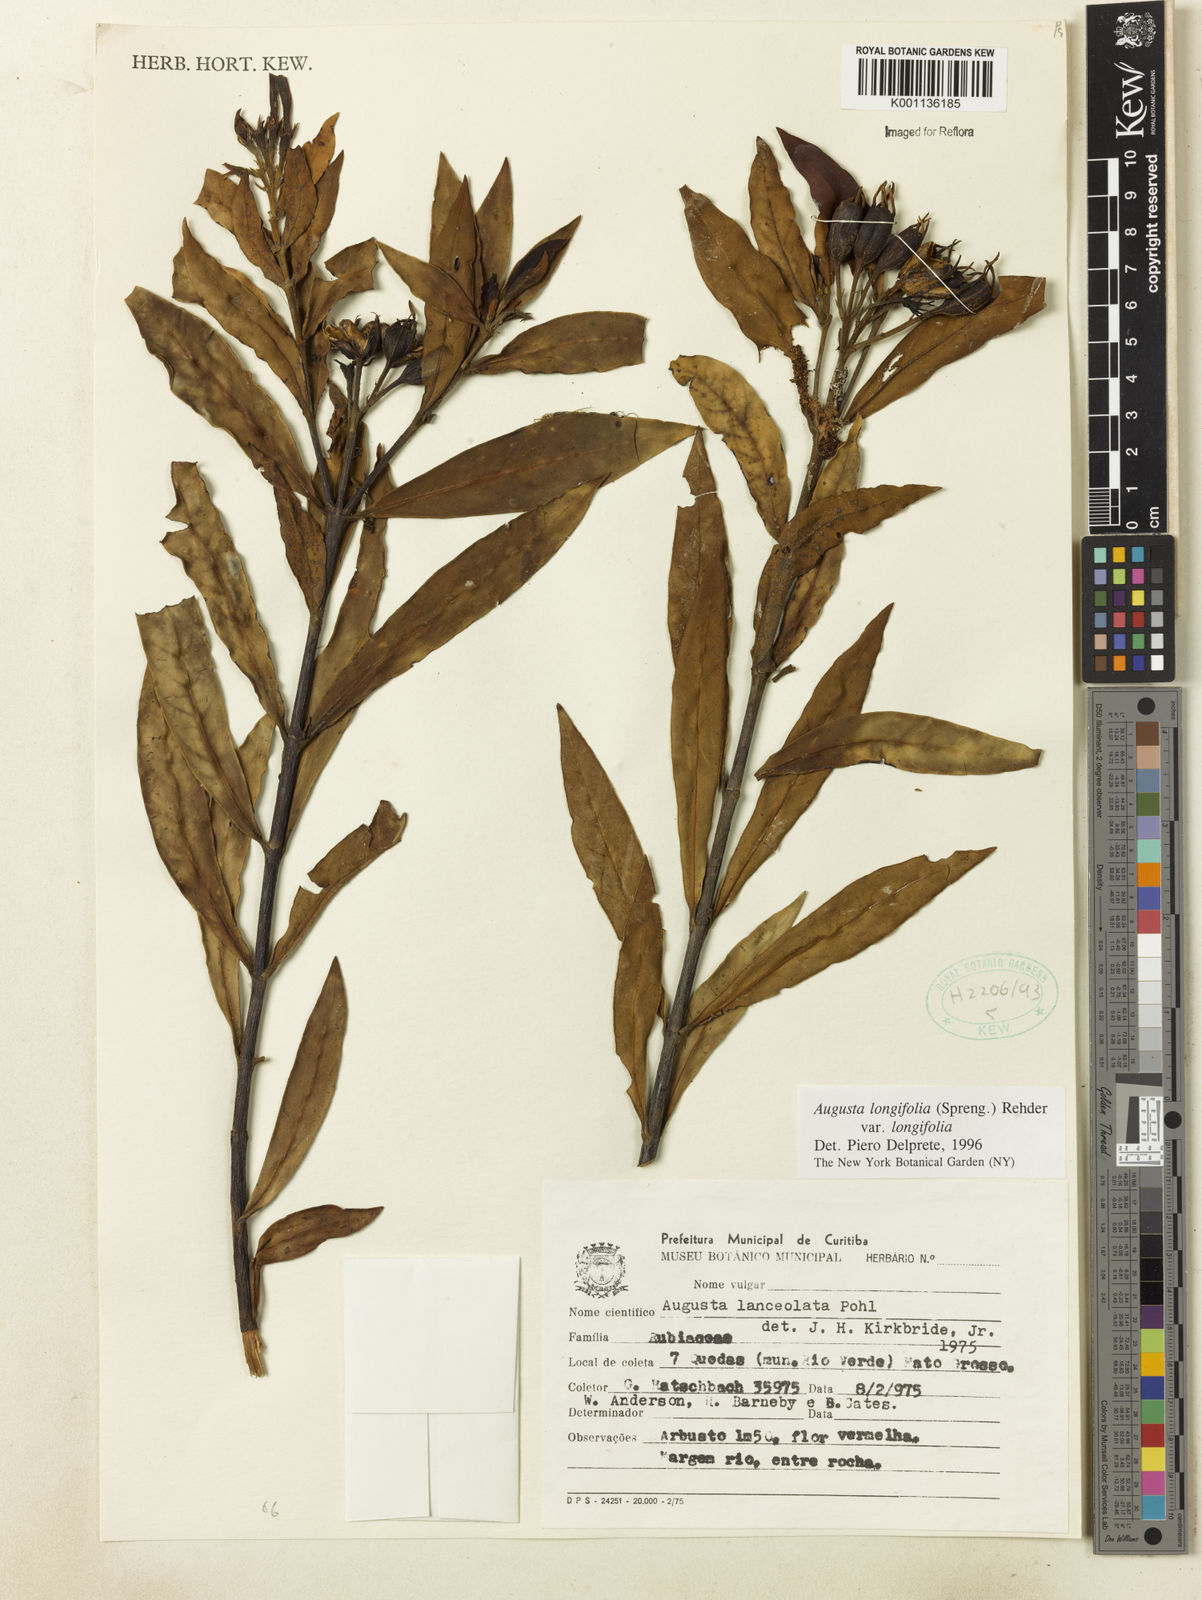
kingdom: Plantae
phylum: Tracheophyta
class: Magnoliopsida
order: Gentianales
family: Rubiaceae
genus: Augusta
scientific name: Augusta longifolia
